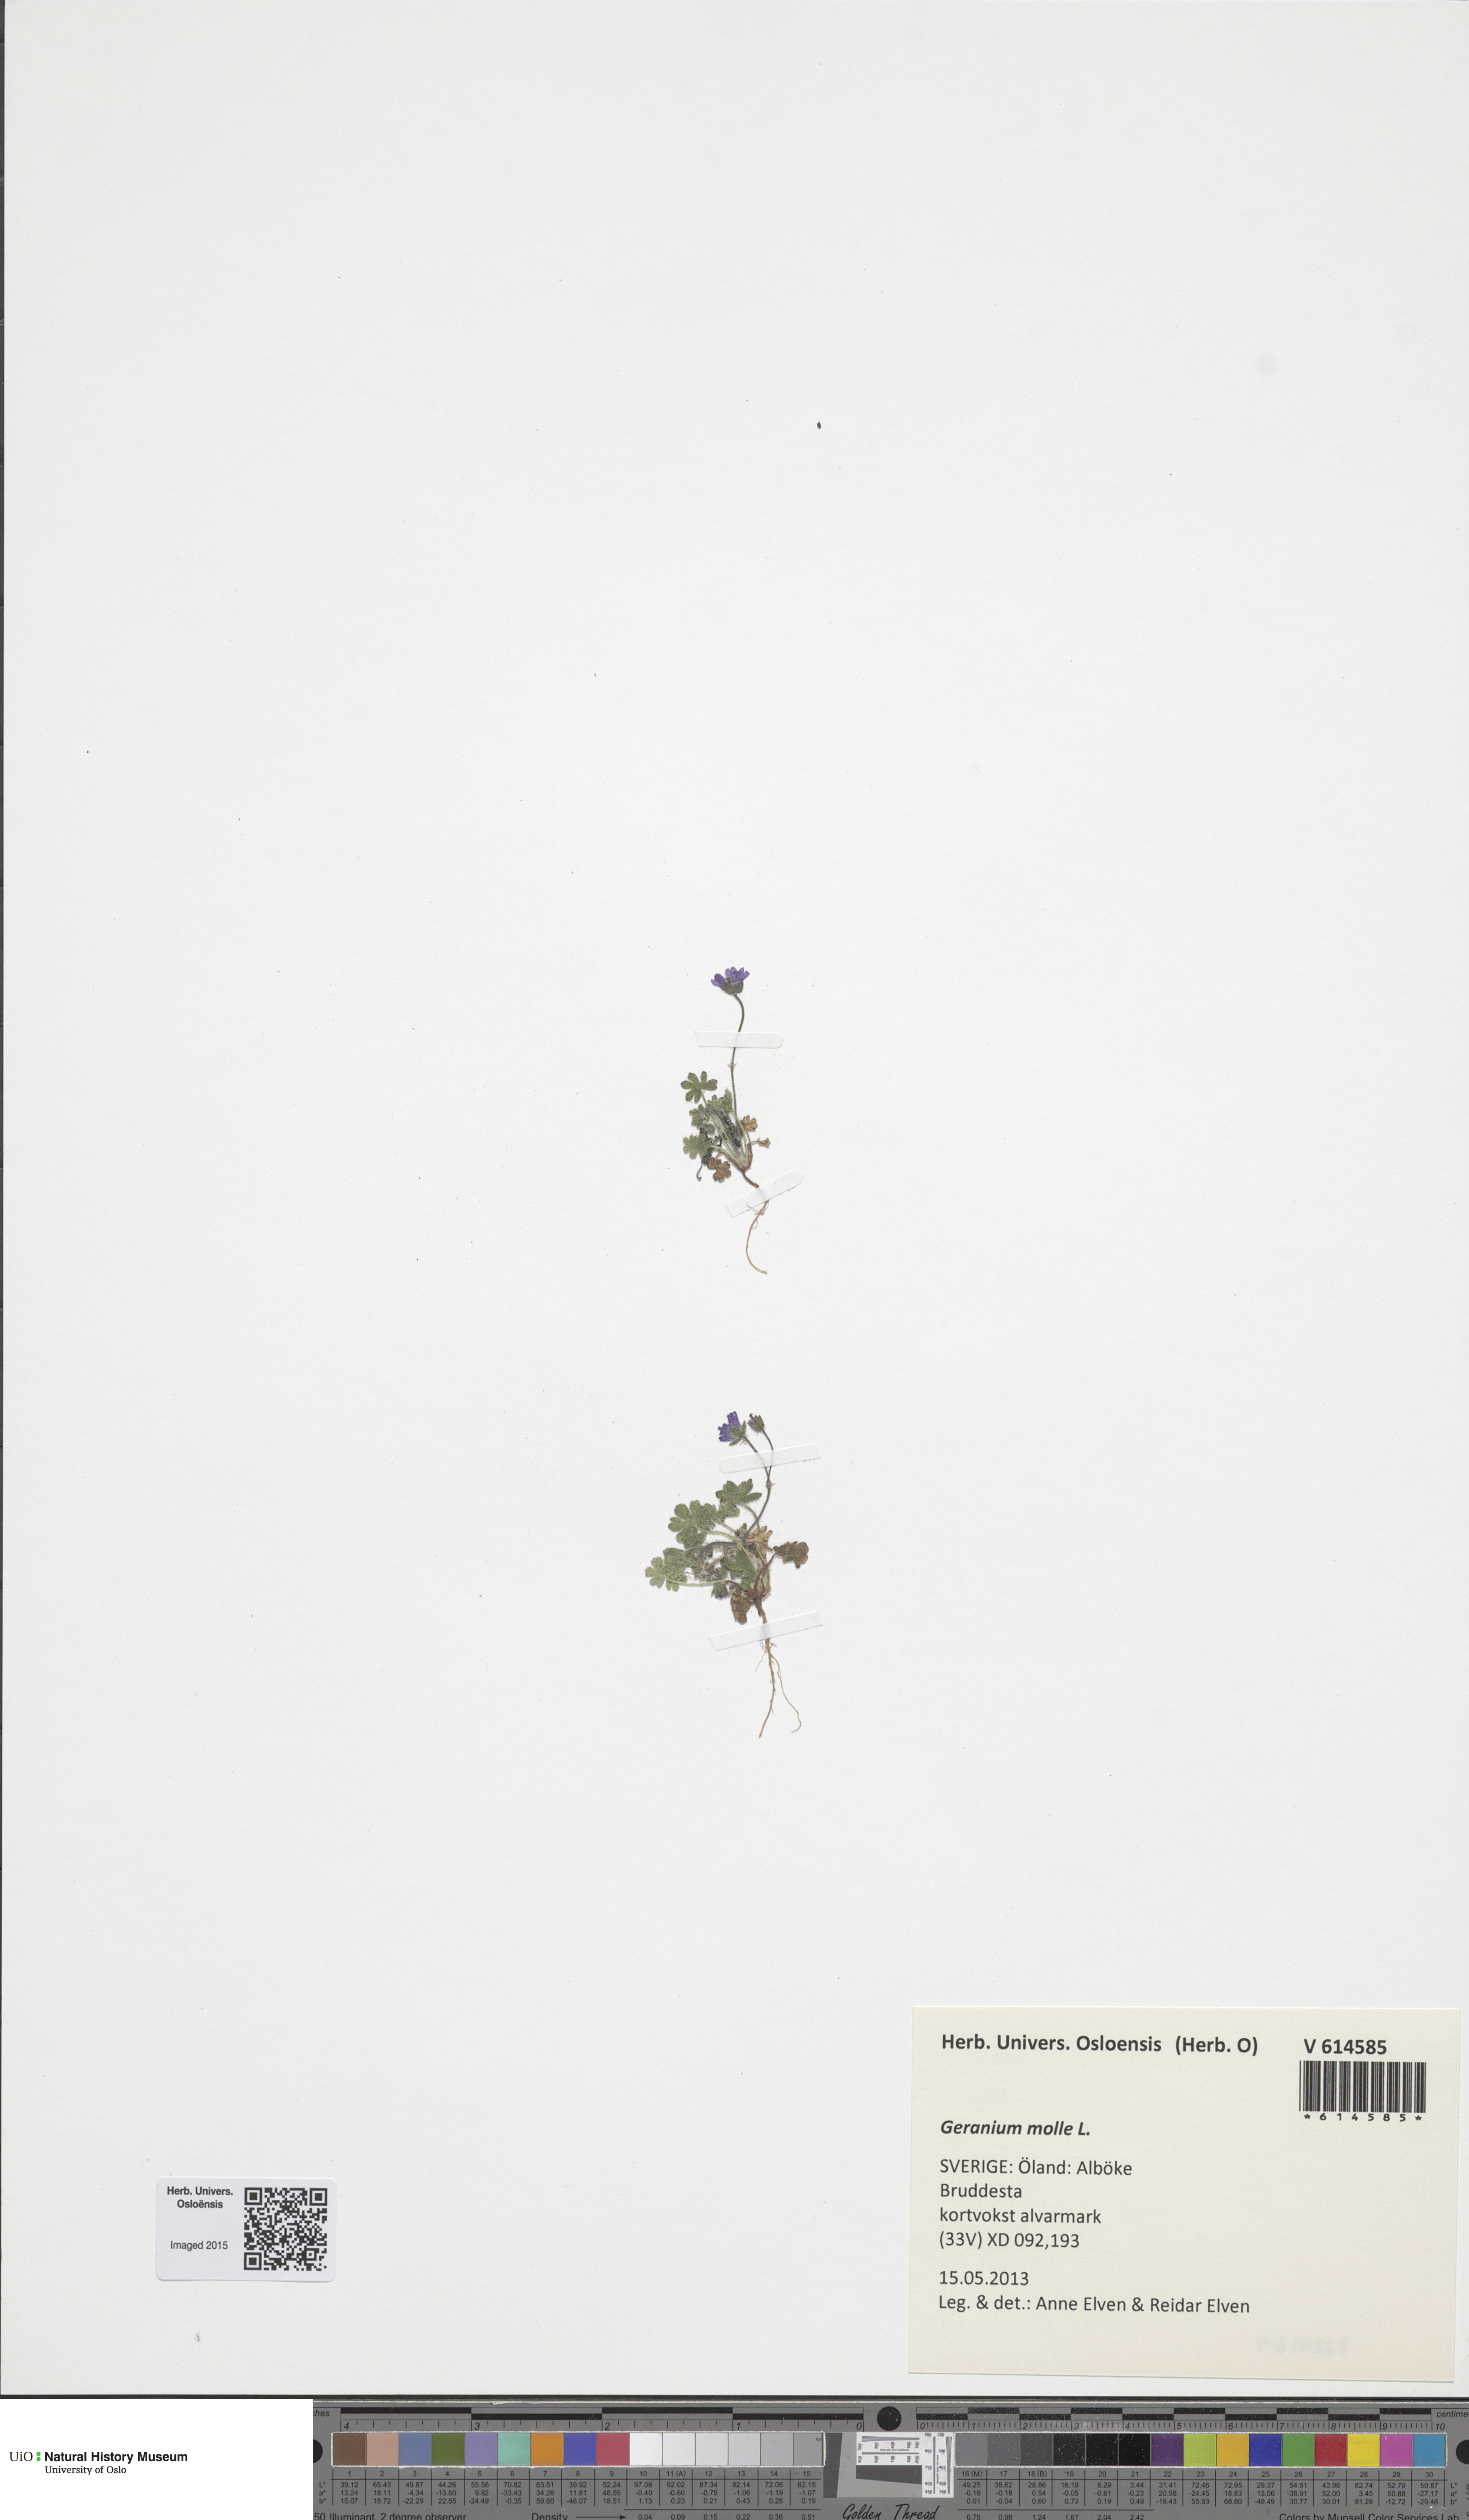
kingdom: Plantae
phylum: Tracheophyta
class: Magnoliopsida
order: Geraniales
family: Geraniaceae
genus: Geranium
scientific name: Geranium molle
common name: Dove's-foot crane's-bill
